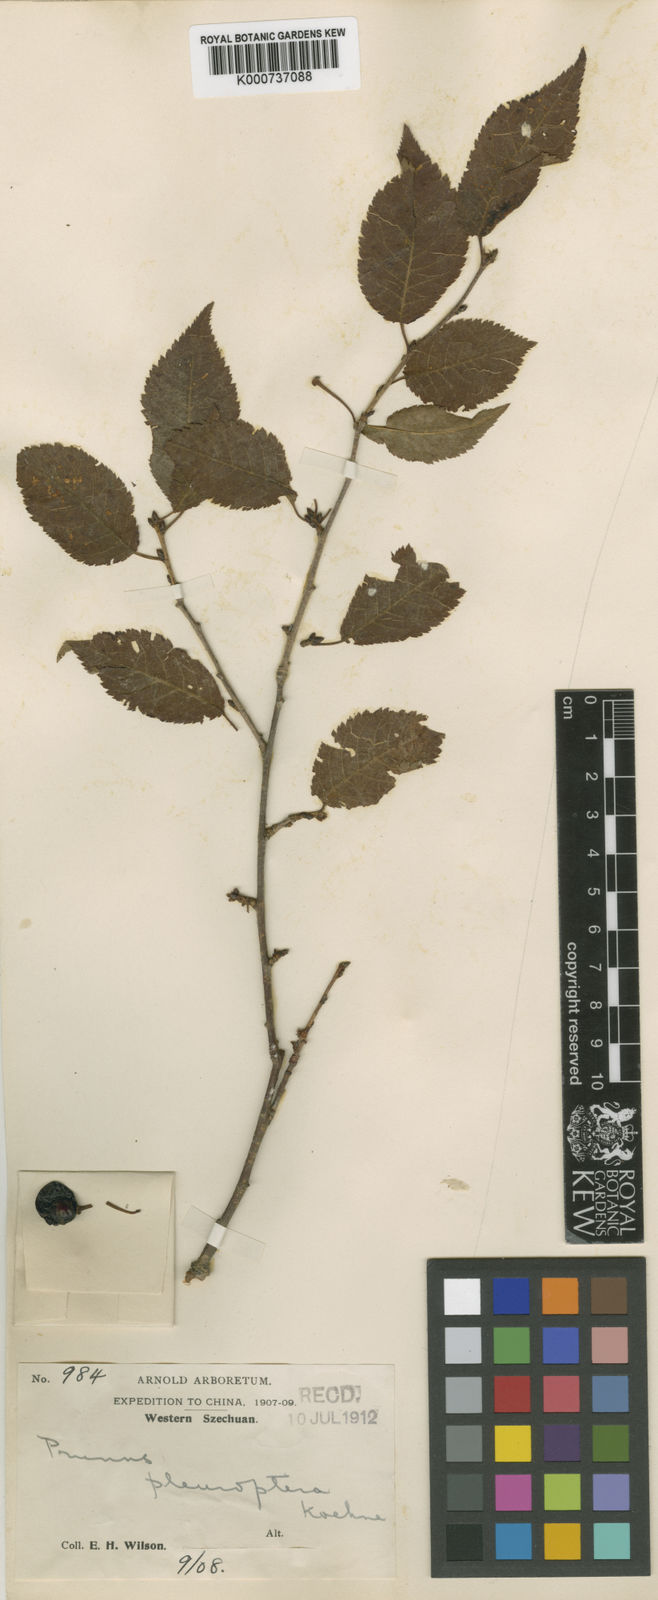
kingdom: Plantae
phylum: Tracheophyta
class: Magnoliopsida
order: Rosales
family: Rosaceae
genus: Prunus
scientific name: Prunus trichostoma
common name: Ribbed cherry
